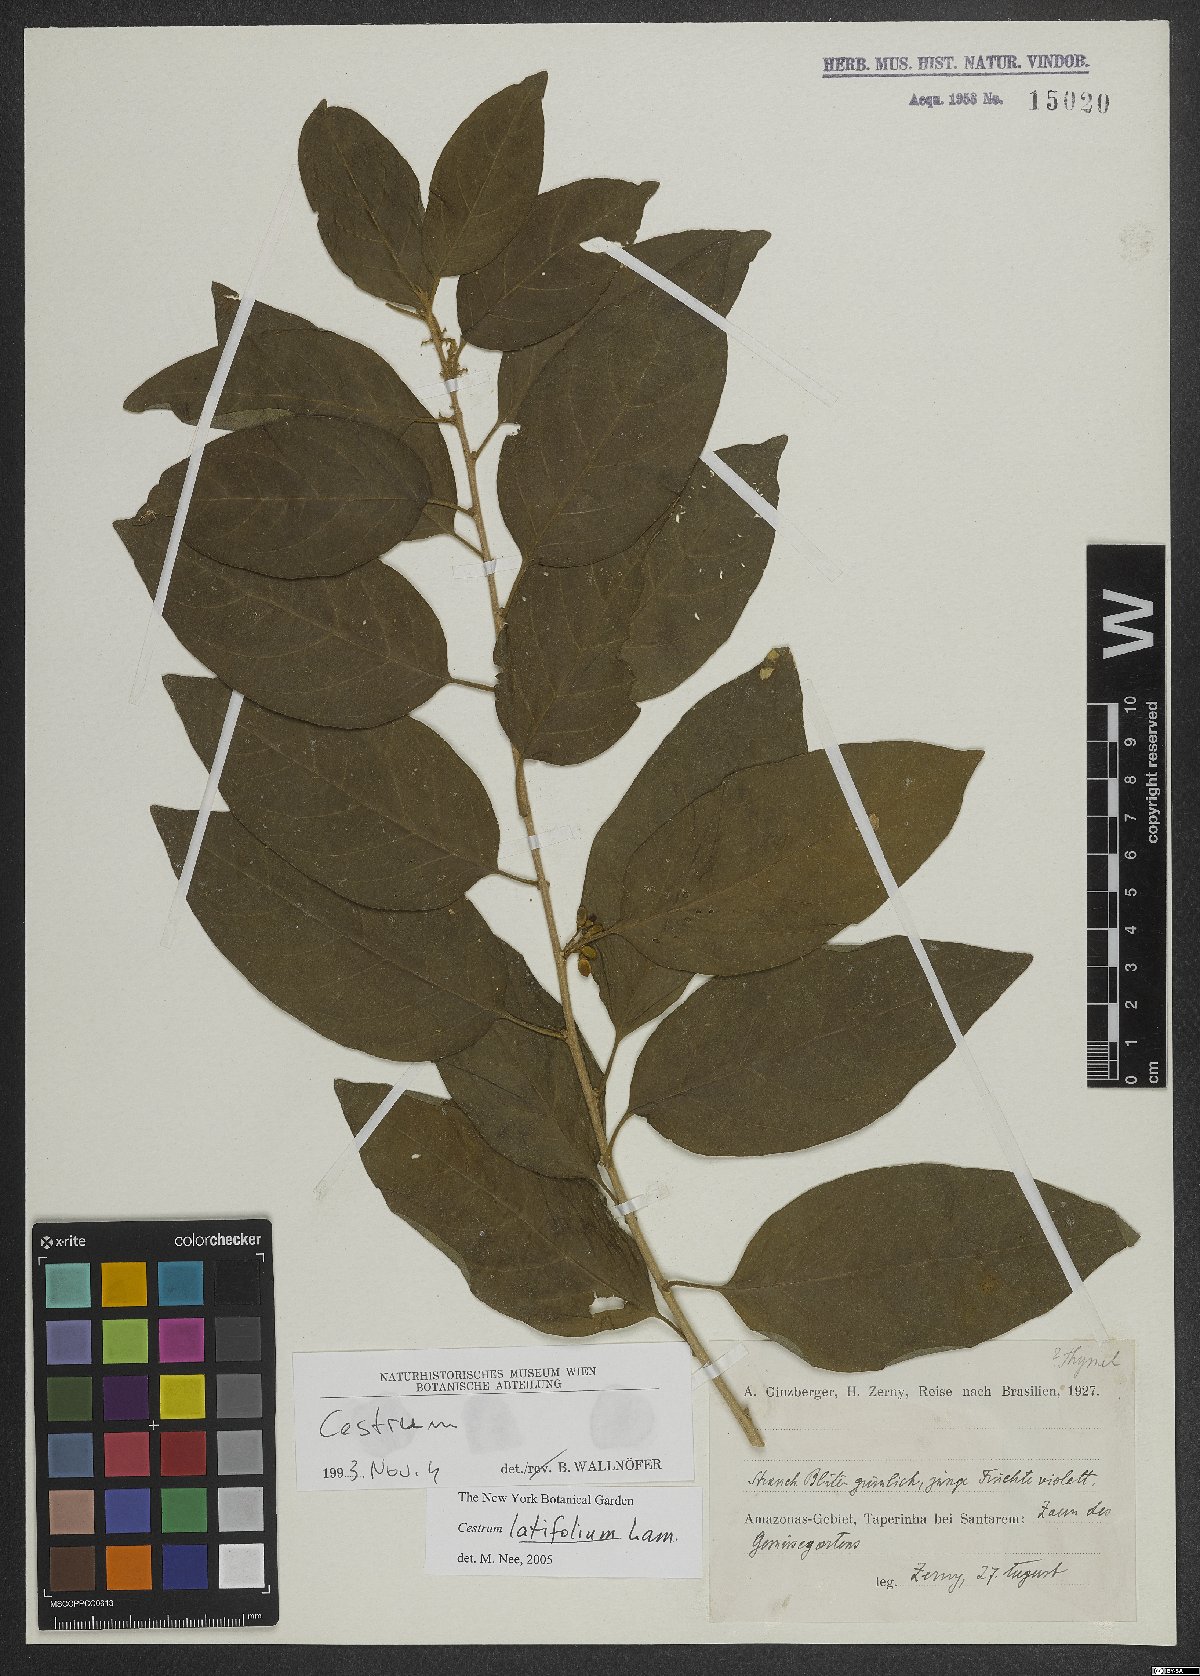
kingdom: Plantae
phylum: Tracheophyta
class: Magnoliopsida
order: Solanales
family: Solanaceae
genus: Cestrum
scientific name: Cestrum latifolium
